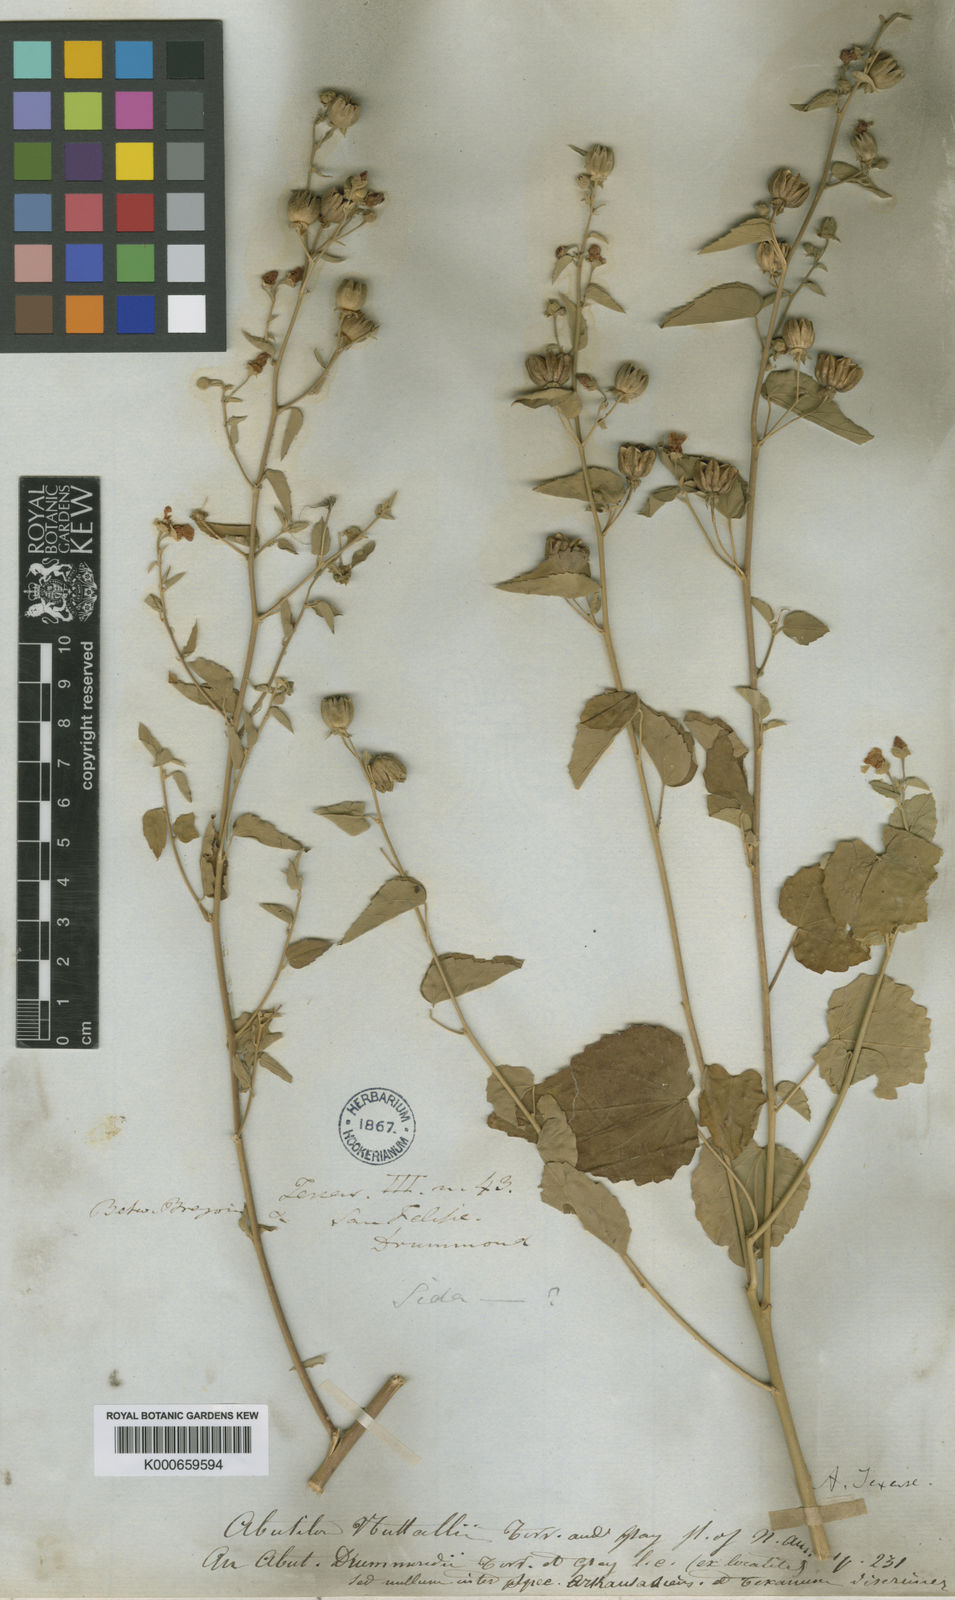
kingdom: Plantae
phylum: Tracheophyta
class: Magnoliopsida
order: Malvales
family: Malvaceae
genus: Abutilon
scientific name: Abutilon fruticosum
